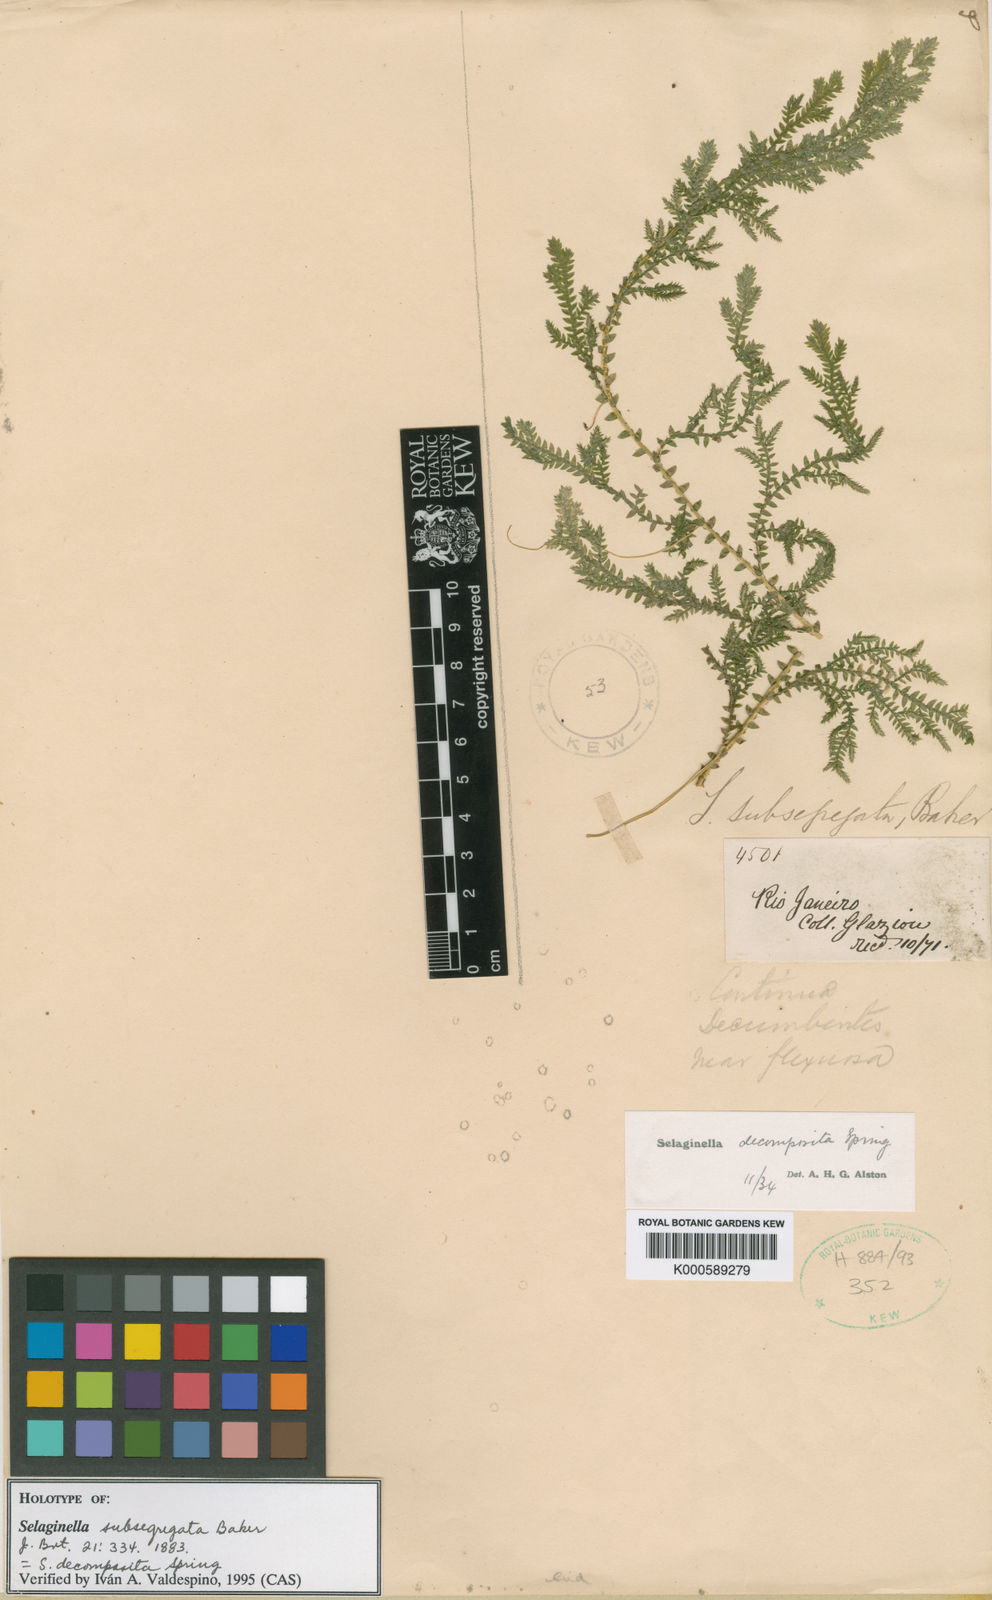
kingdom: Plantae
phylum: Tracheophyta
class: Lycopodiopsida
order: Selaginellales
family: Selaginellaceae
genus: Selaginella
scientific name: Selaginella stenophylla
